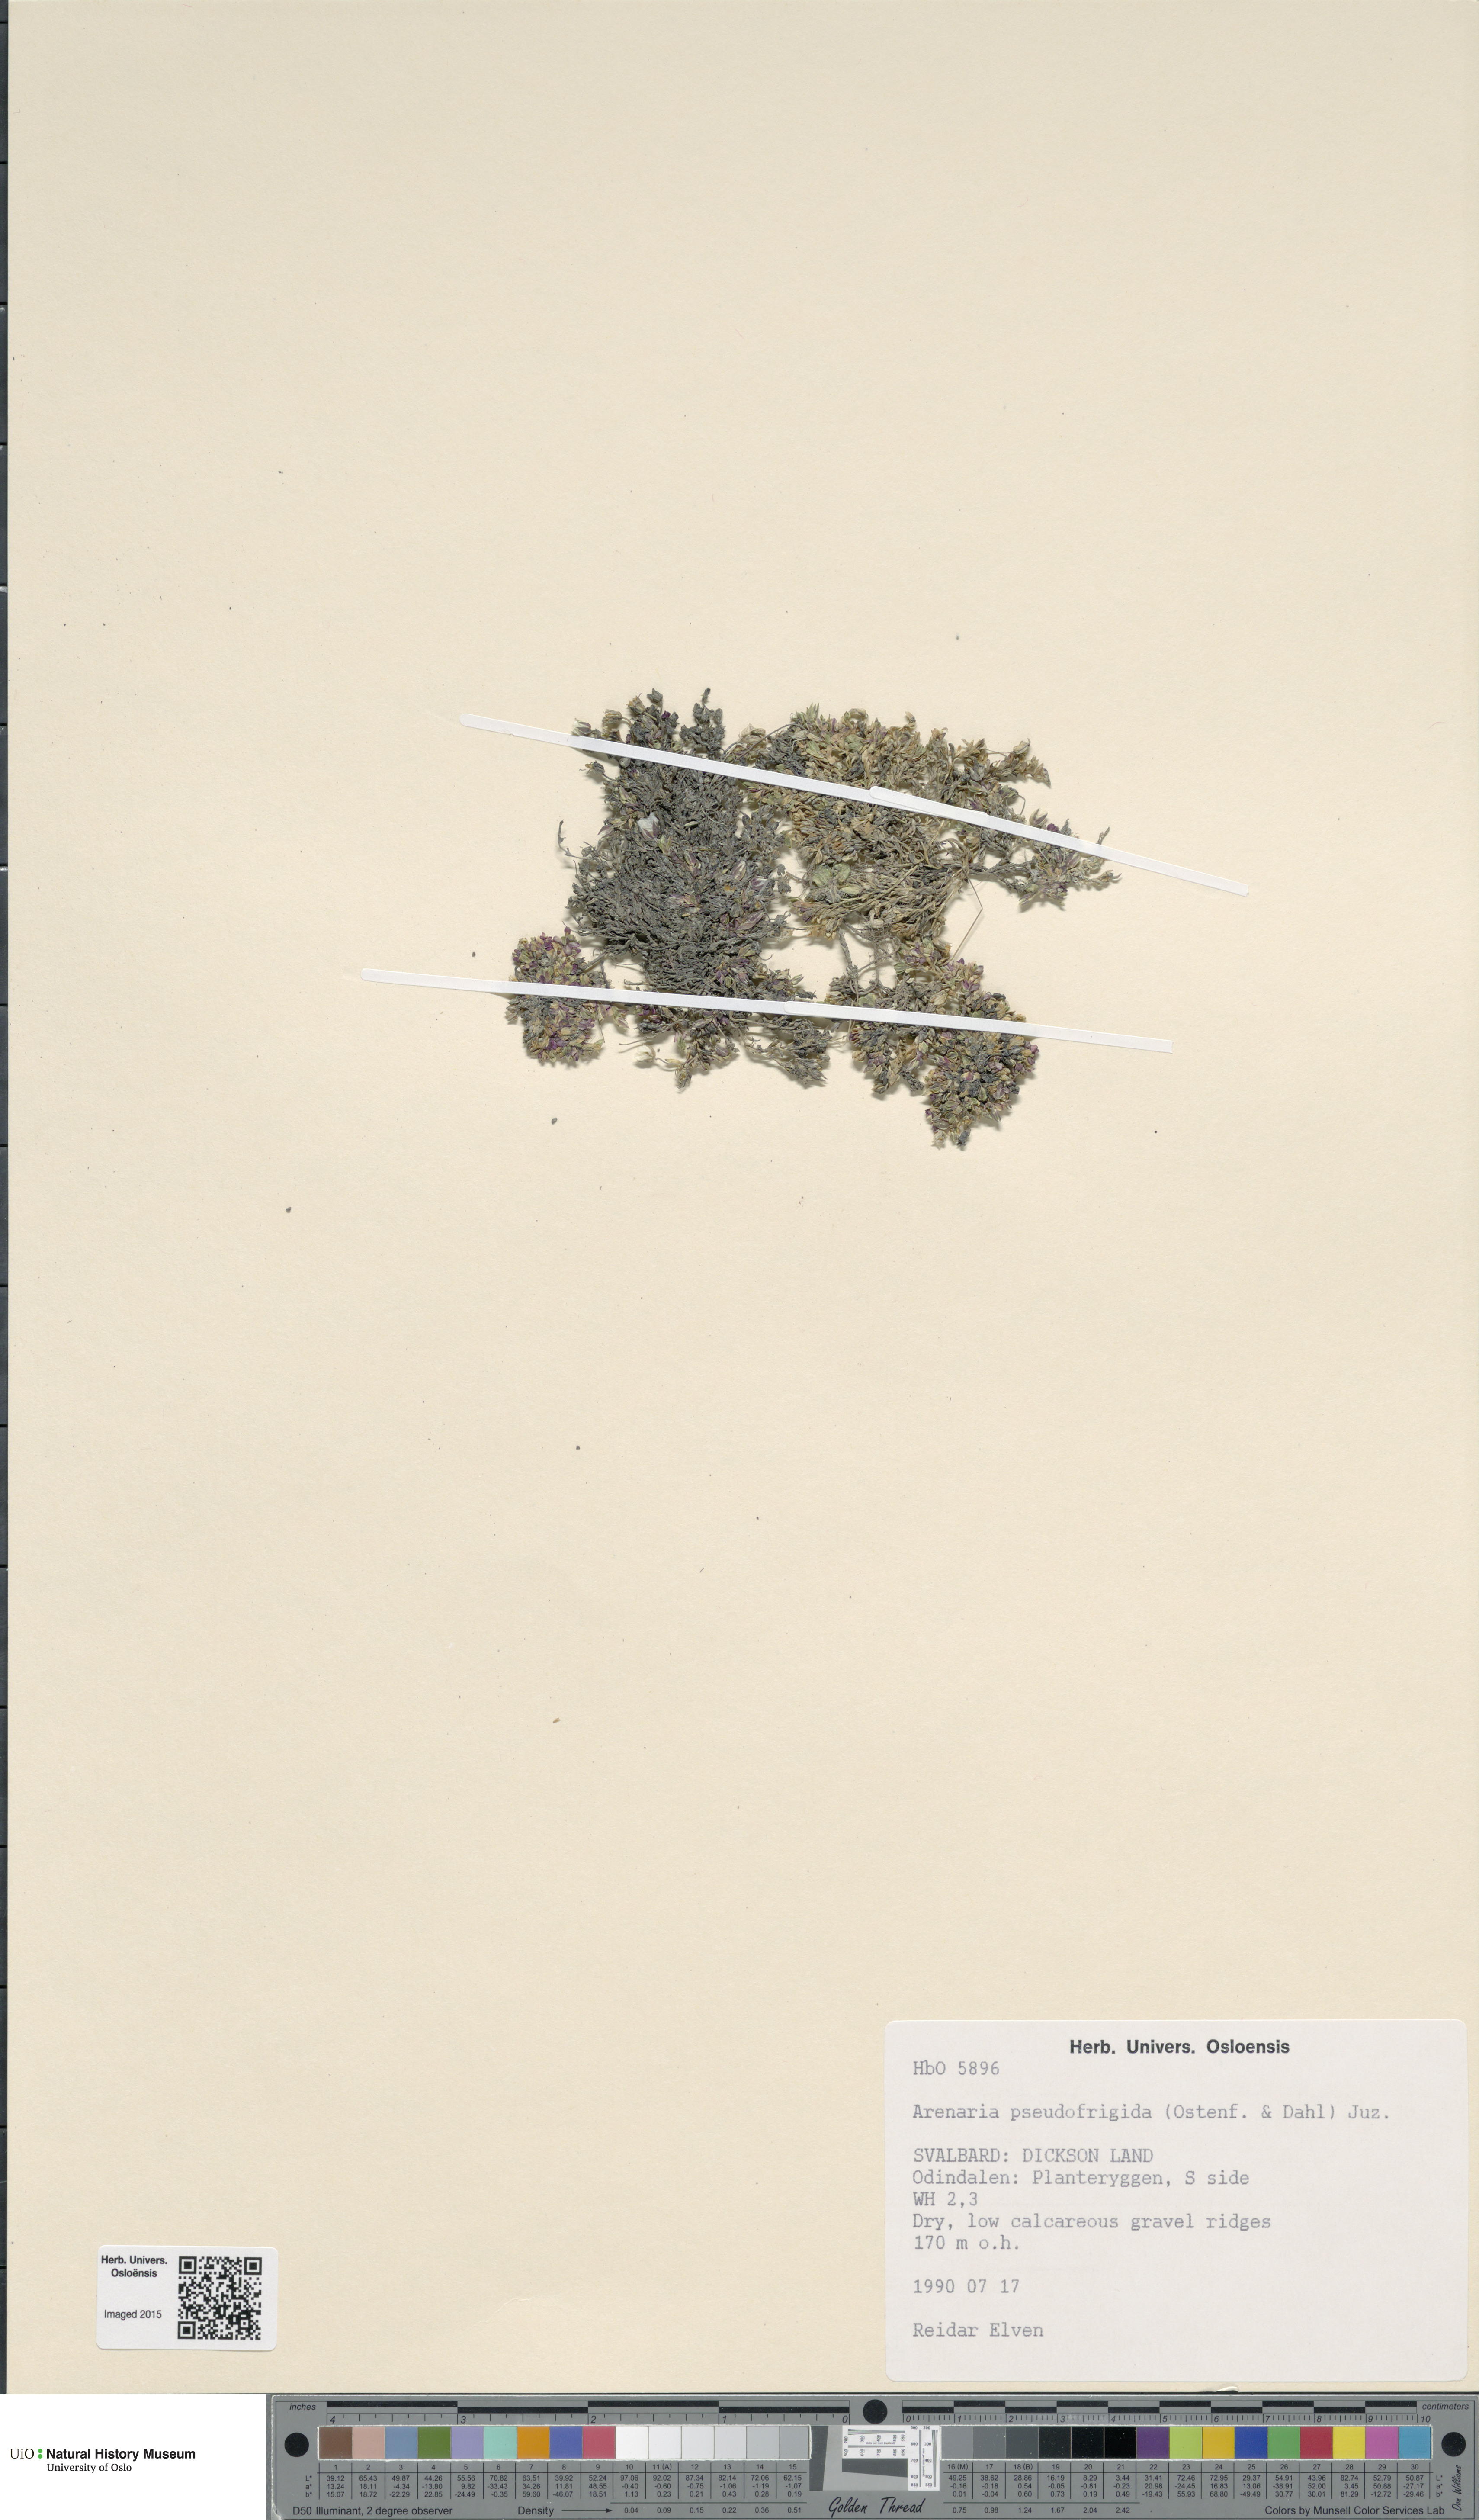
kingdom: Plantae
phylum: Tracheophyta
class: Magnoliopsida
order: Caryophyllales
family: Caryophyllaceae
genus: Arenaria
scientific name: Arenaria pseudofrigida
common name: Tundra sandwort
